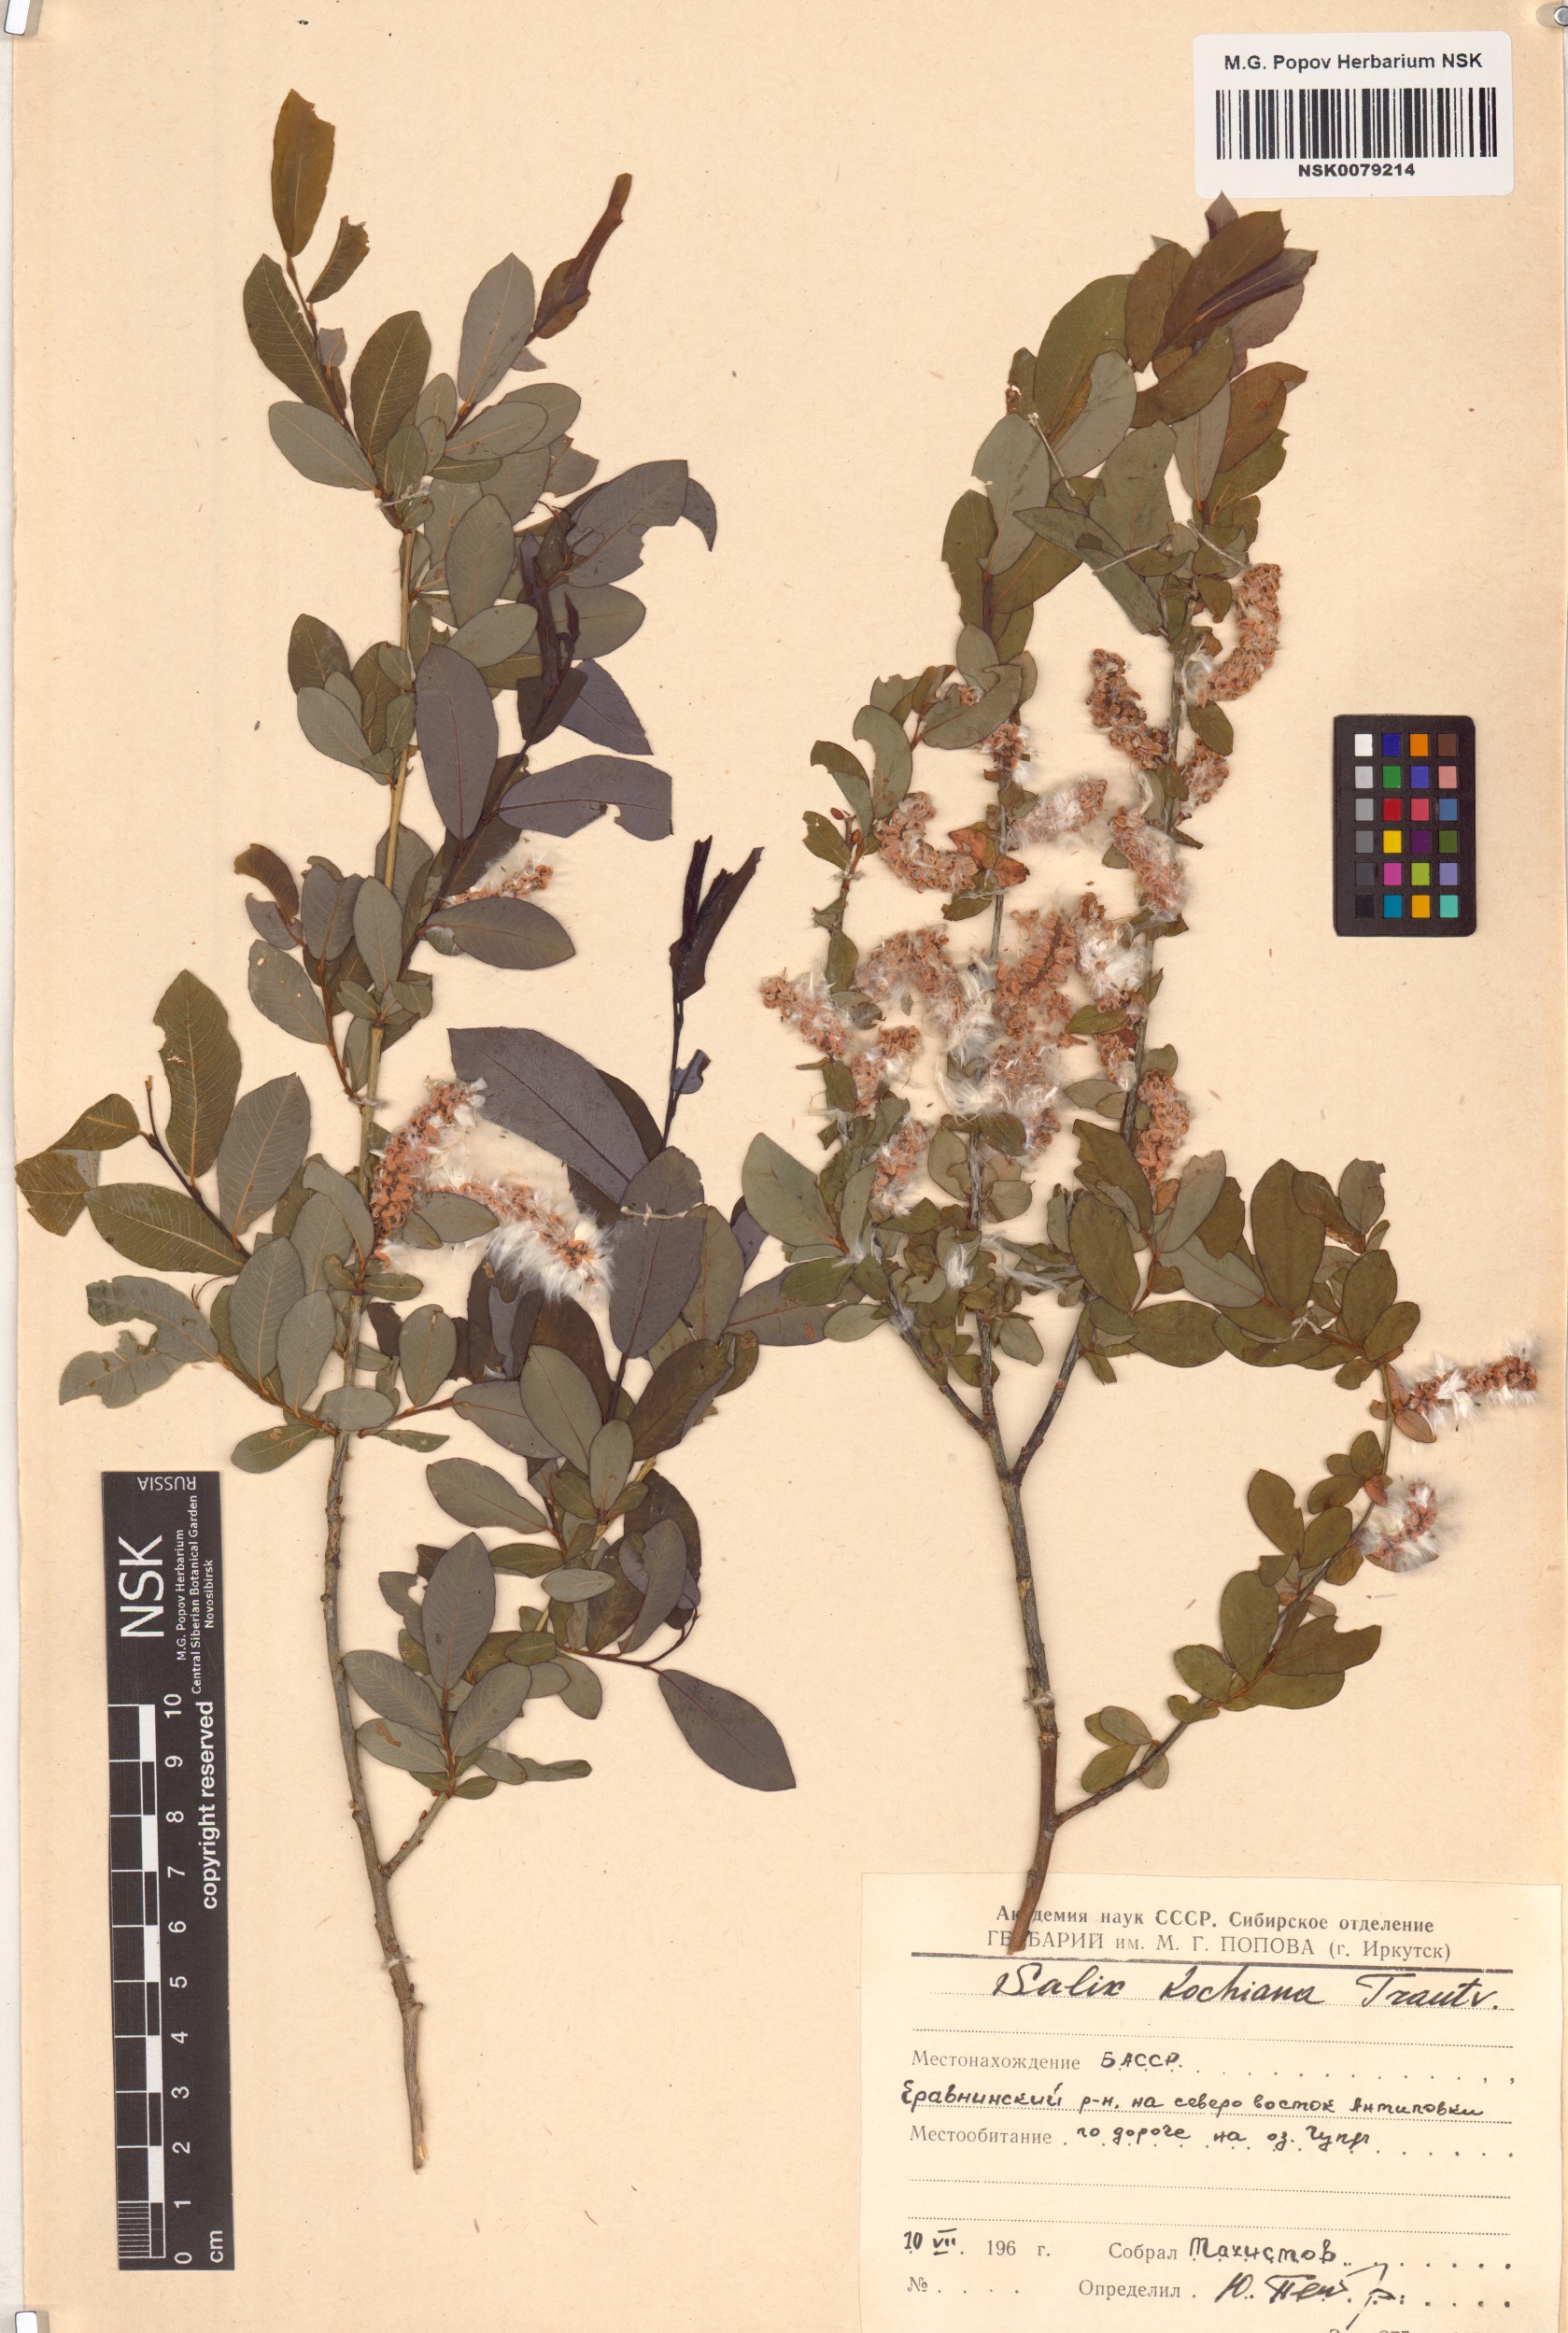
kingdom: Plantae
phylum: Tracheophyta
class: Magnoliopsida
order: Malpighiales
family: Salicaceae
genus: Salix
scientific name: Salix kochiana
